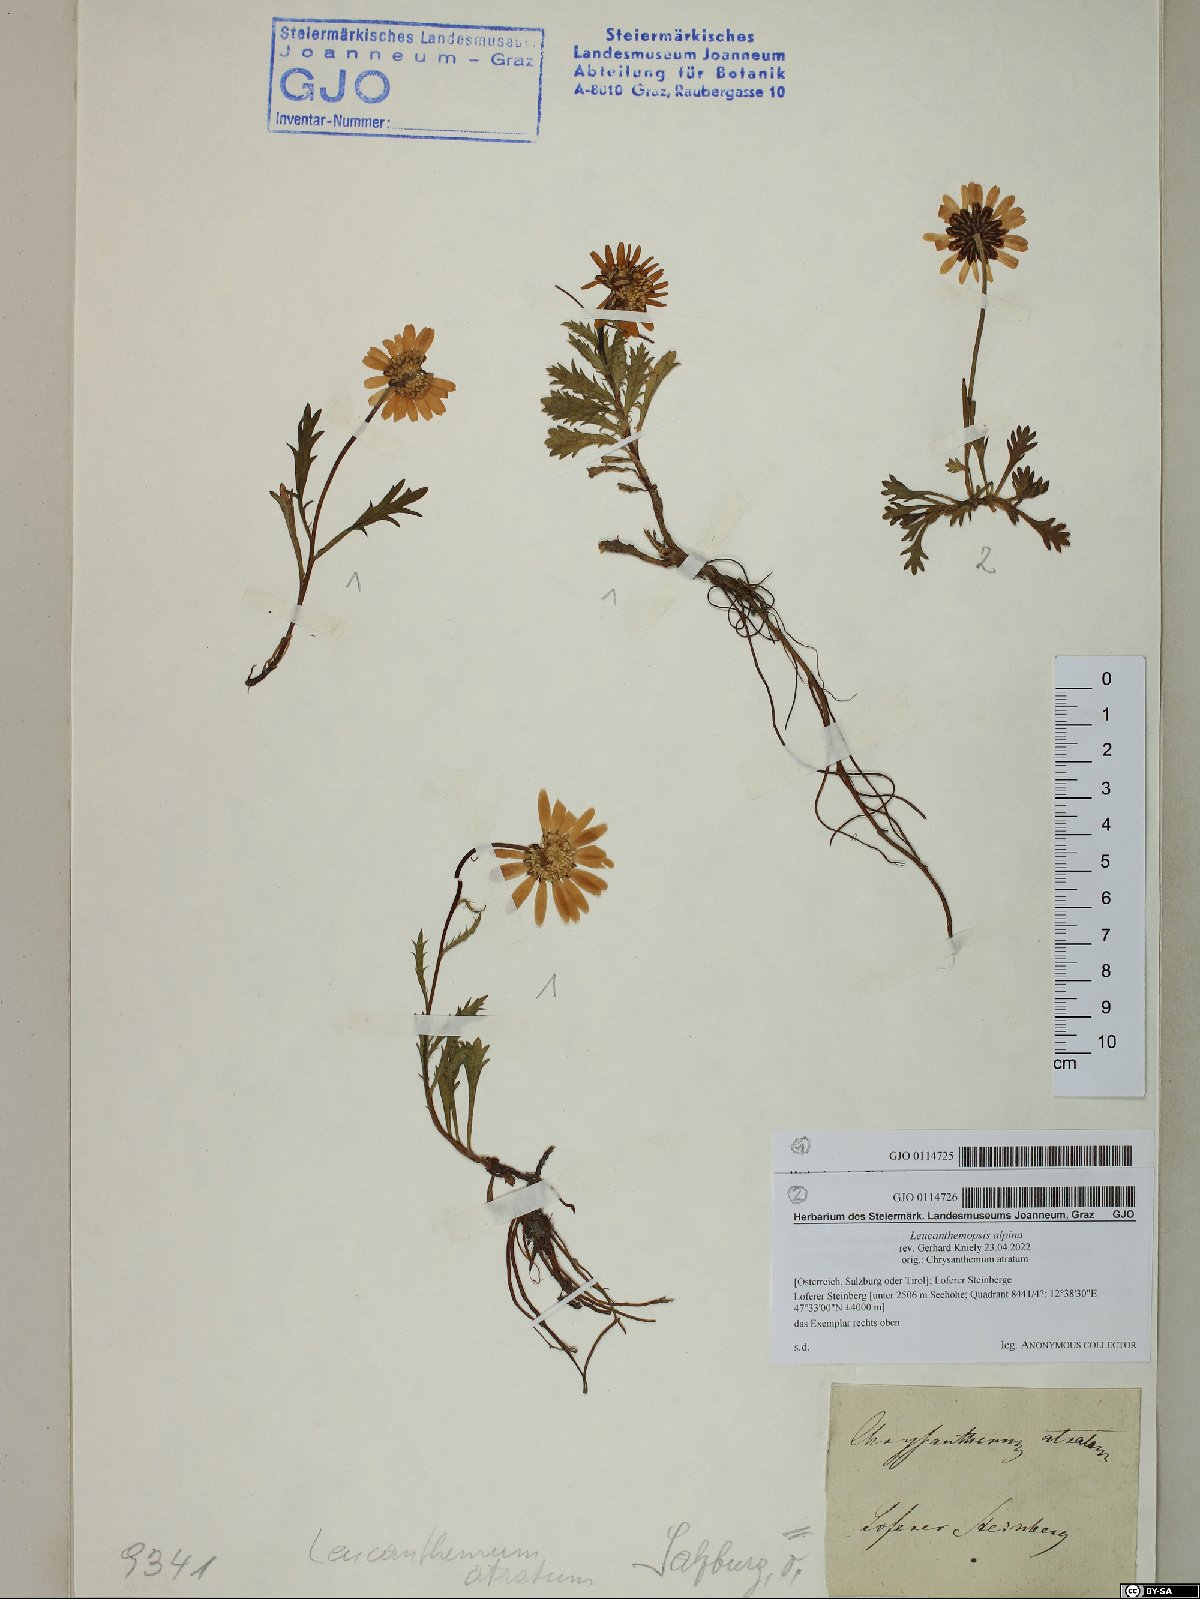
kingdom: Plantae
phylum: Tracheophyta
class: Magnoliopsida
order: Asterales
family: Asteraceae
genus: Leucanthemum
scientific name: Leucanthemum halleri
